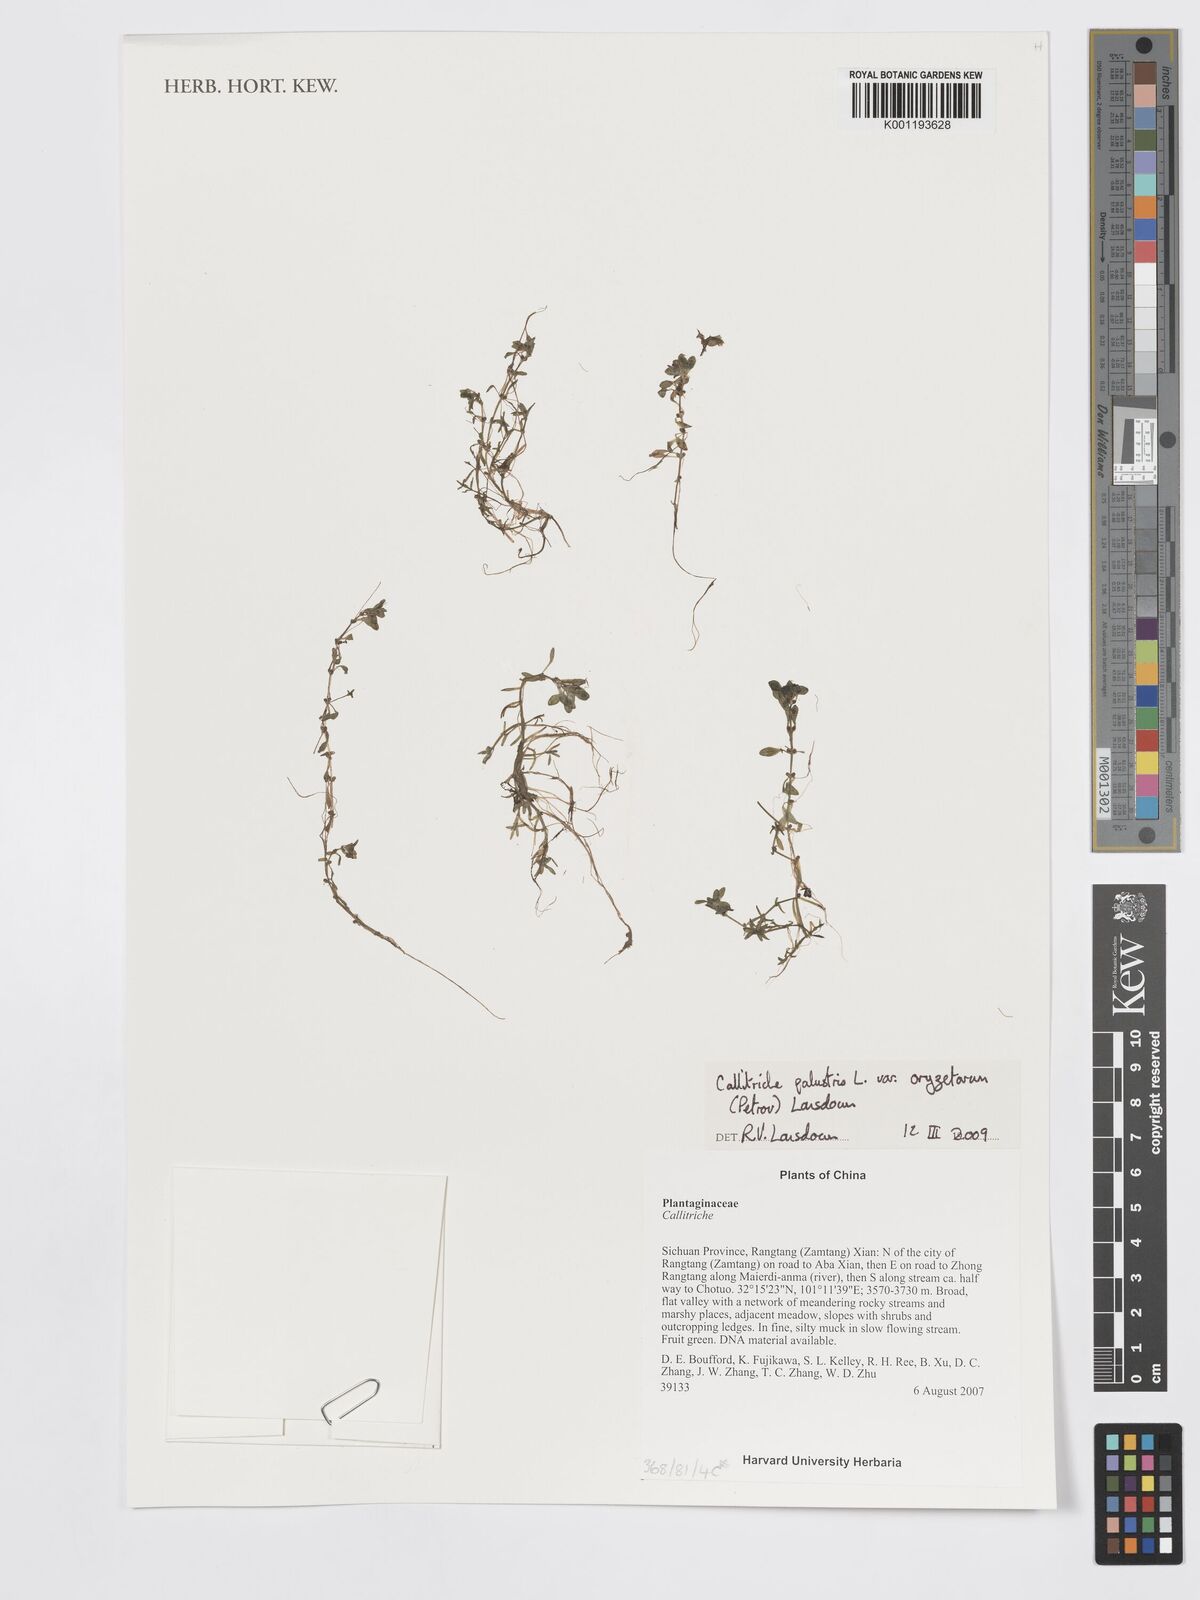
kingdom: Plantae
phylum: Tracheophyta
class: Magnoliopsida
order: Lamiales
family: Plantaginaceae
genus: Callitriche
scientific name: Callitriche palustris
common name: Spring water-starwort
